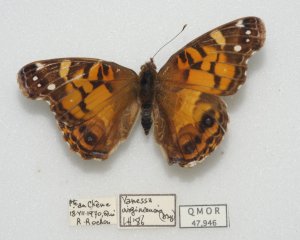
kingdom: Animalia
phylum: Arthropoda
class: Insecta
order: Lepidoptera
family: Nymphalidae
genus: Vanessa
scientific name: Vanessa virginiensis
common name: American Lady
